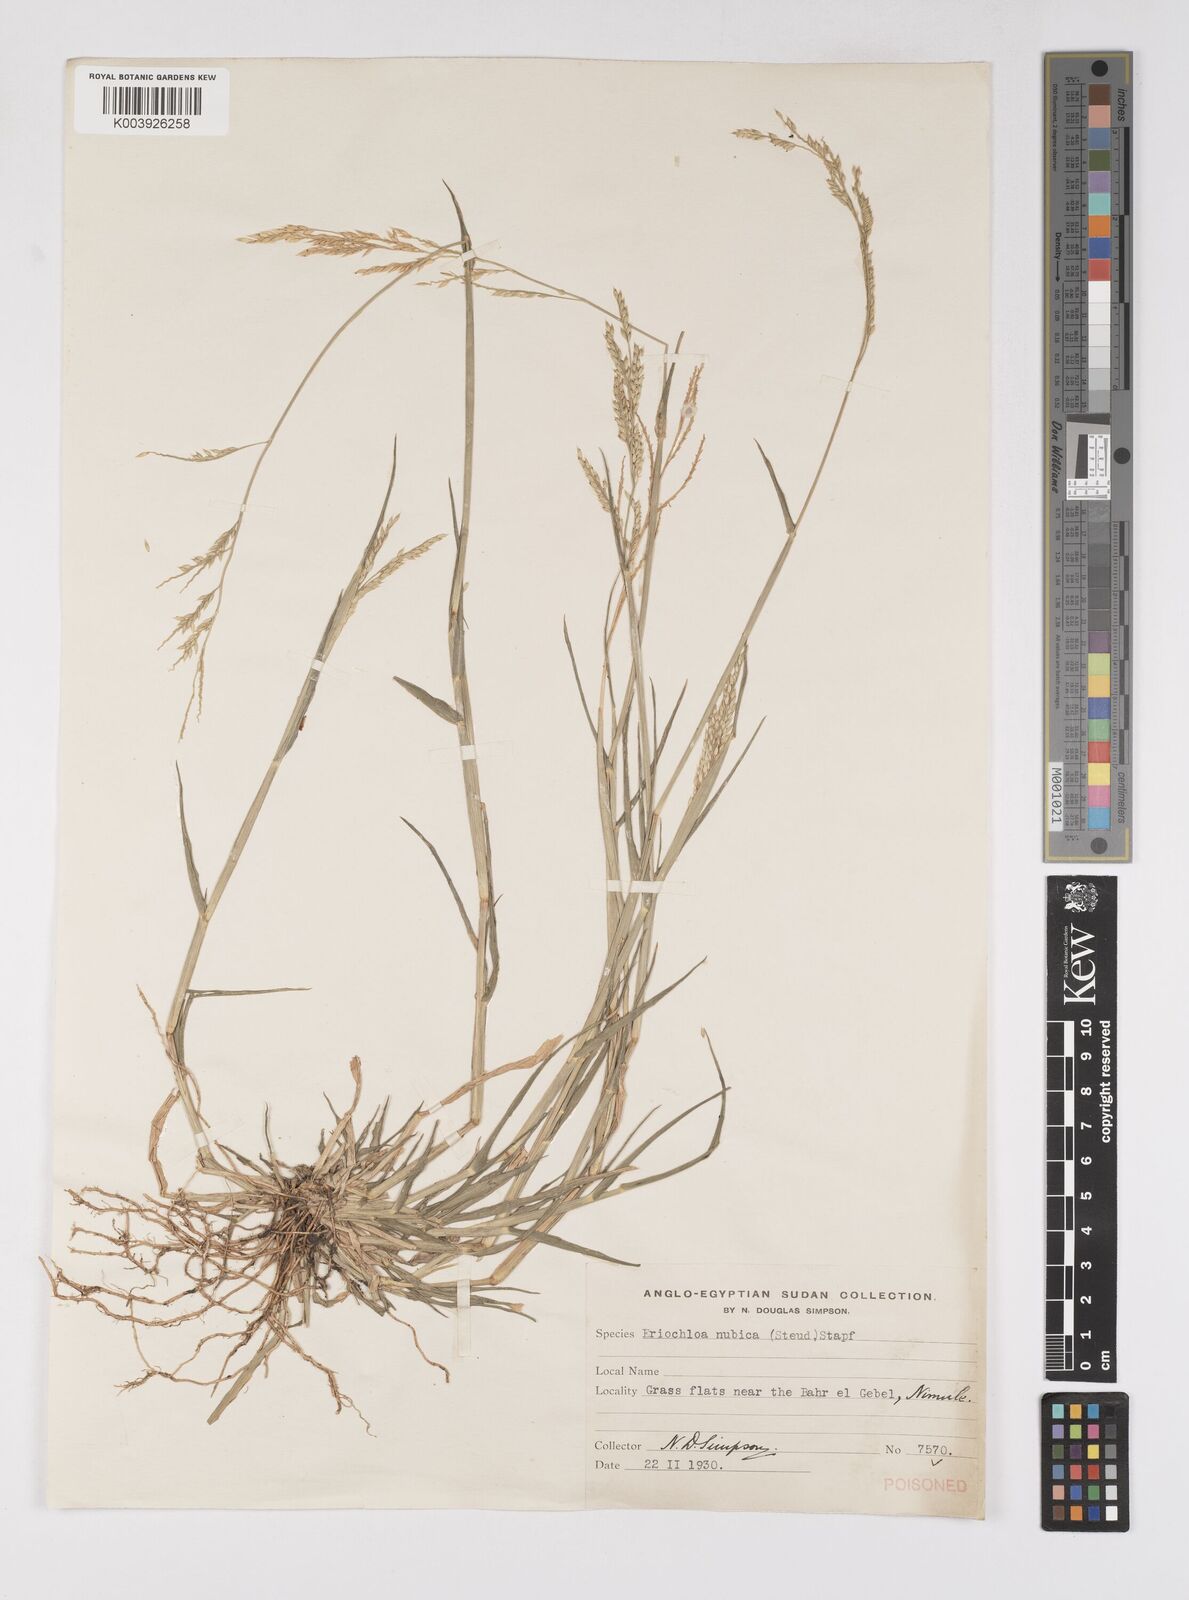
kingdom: Plantae
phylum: Tracheophyta
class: Liliopsida
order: Poales
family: Poaceae
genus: Eriochloa
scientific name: Eriochloa barbatus
